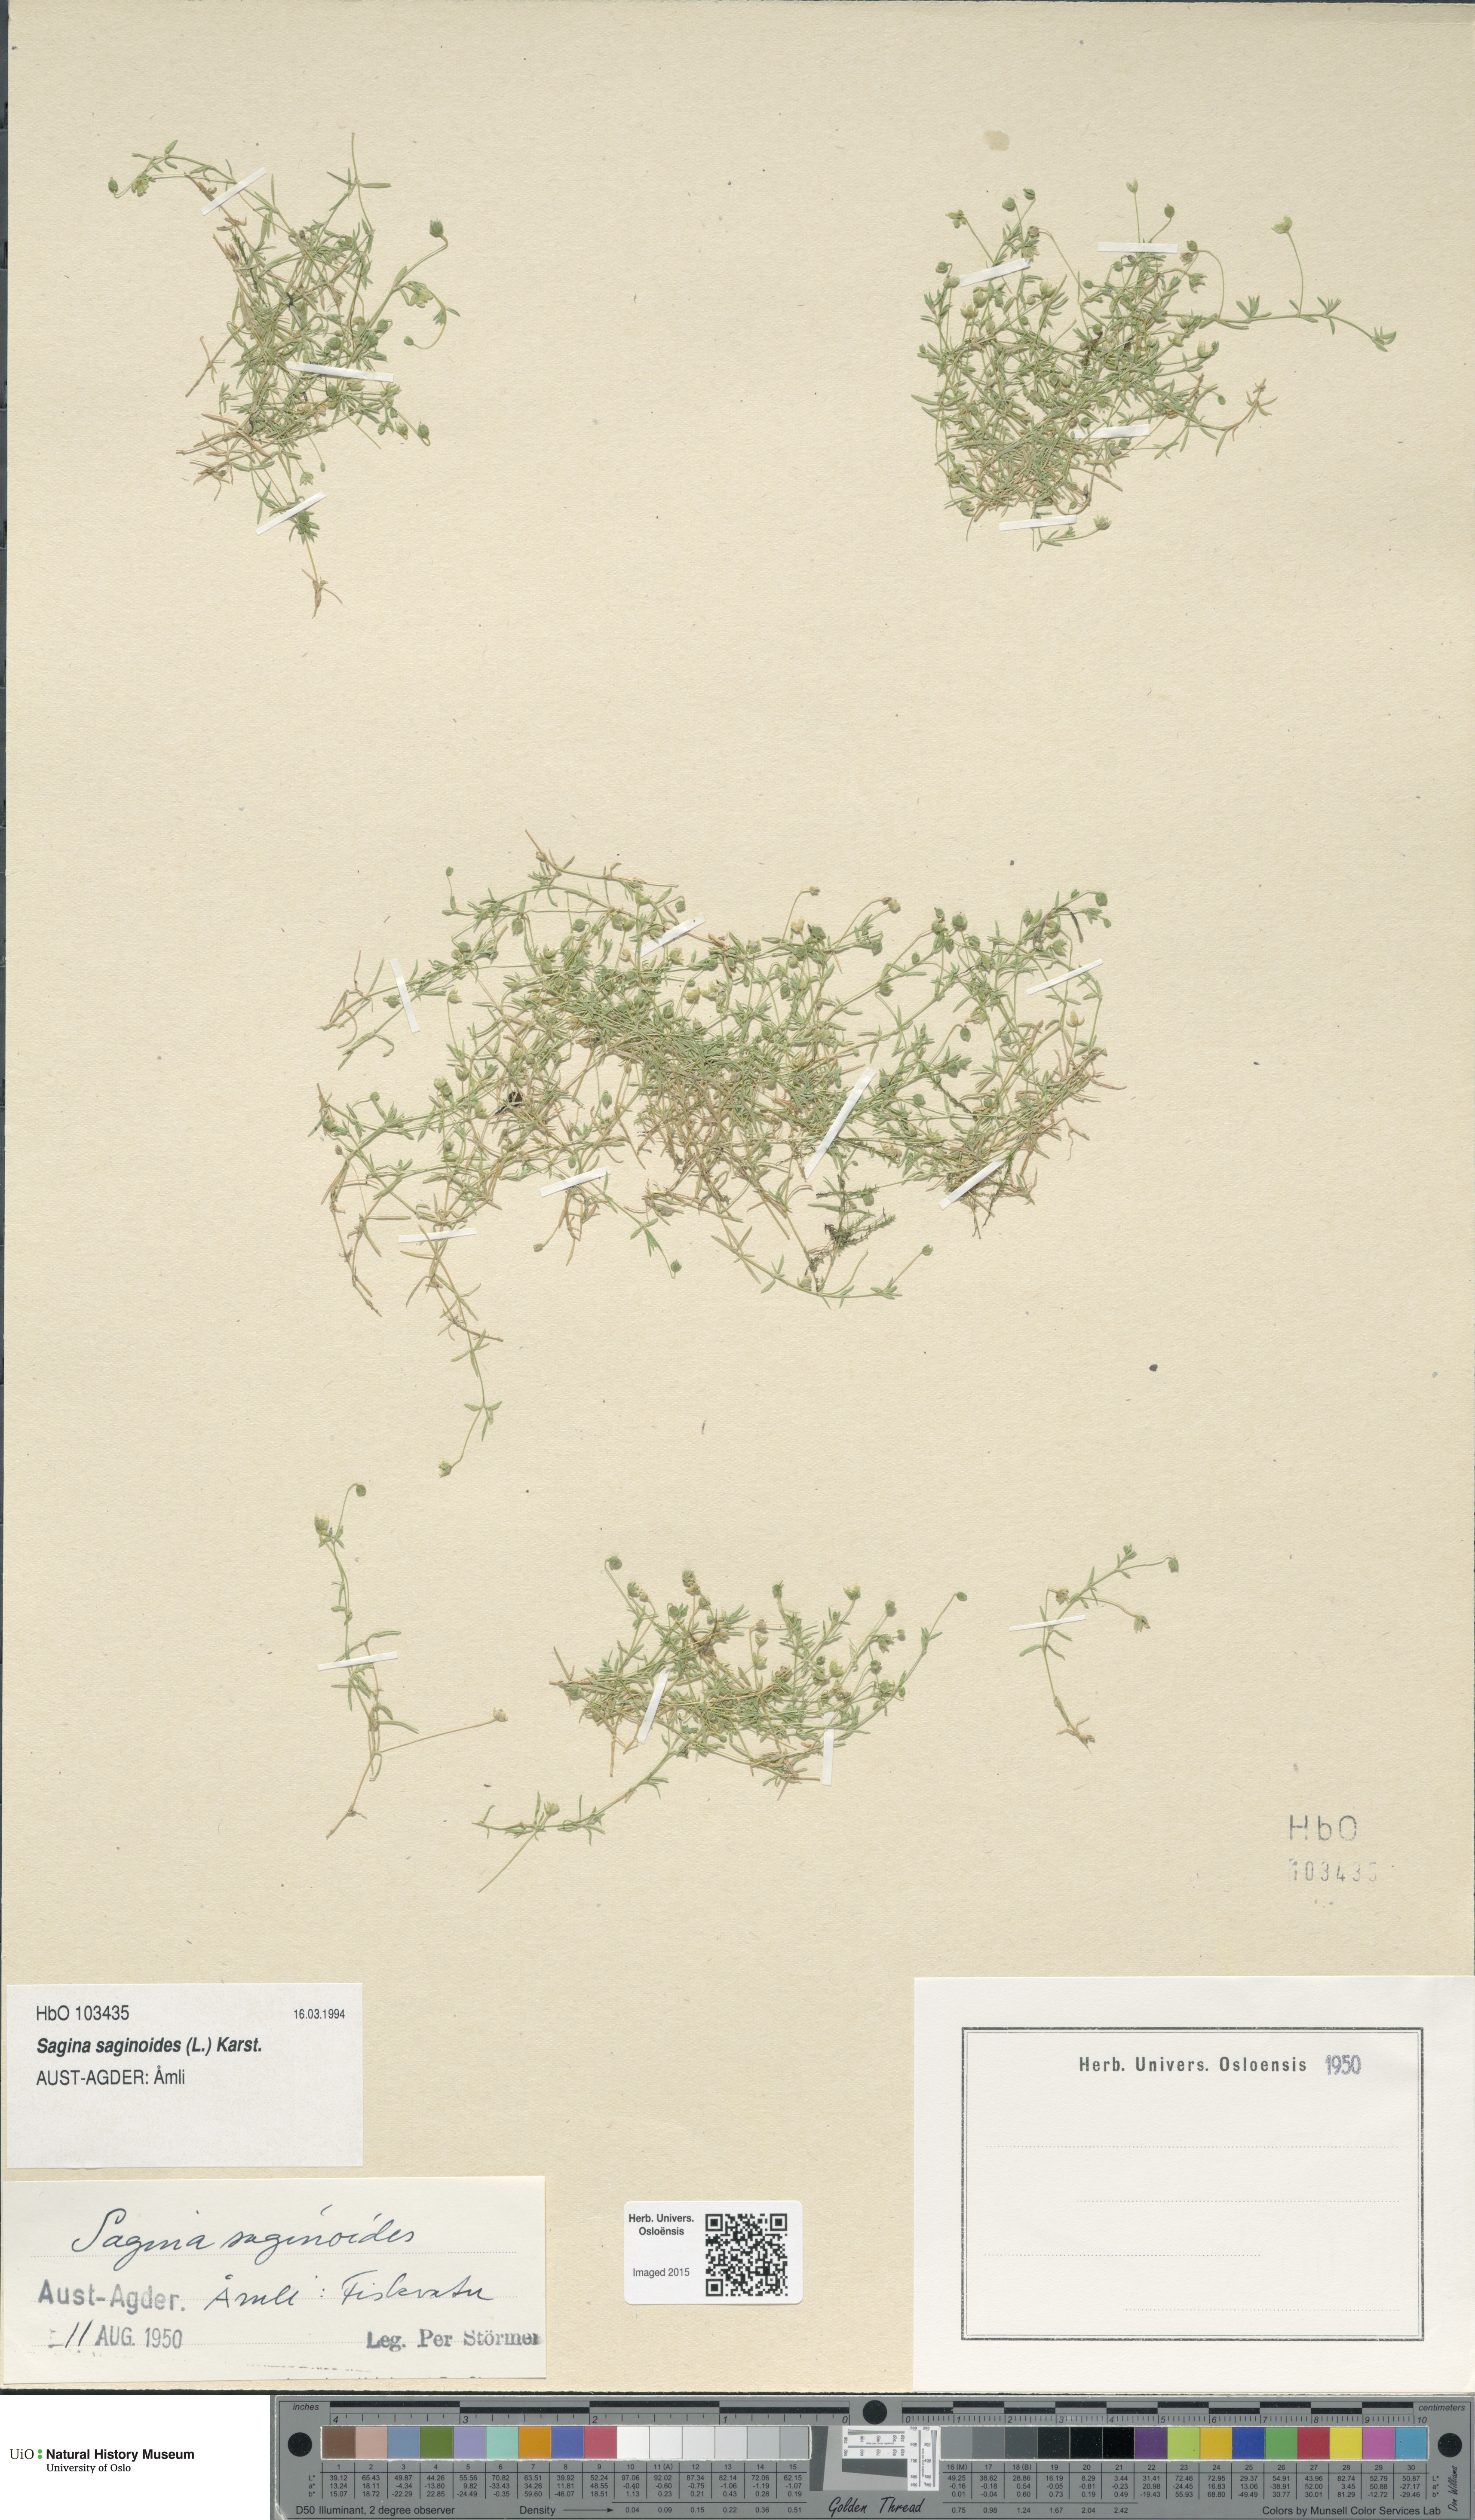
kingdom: Plantae
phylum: Tracheophyta
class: Magnoliopsida
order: Caryophyllales
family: Caryophyllaceae
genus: Sagina
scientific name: Sagina saginoides
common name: Alpine pearlwort
